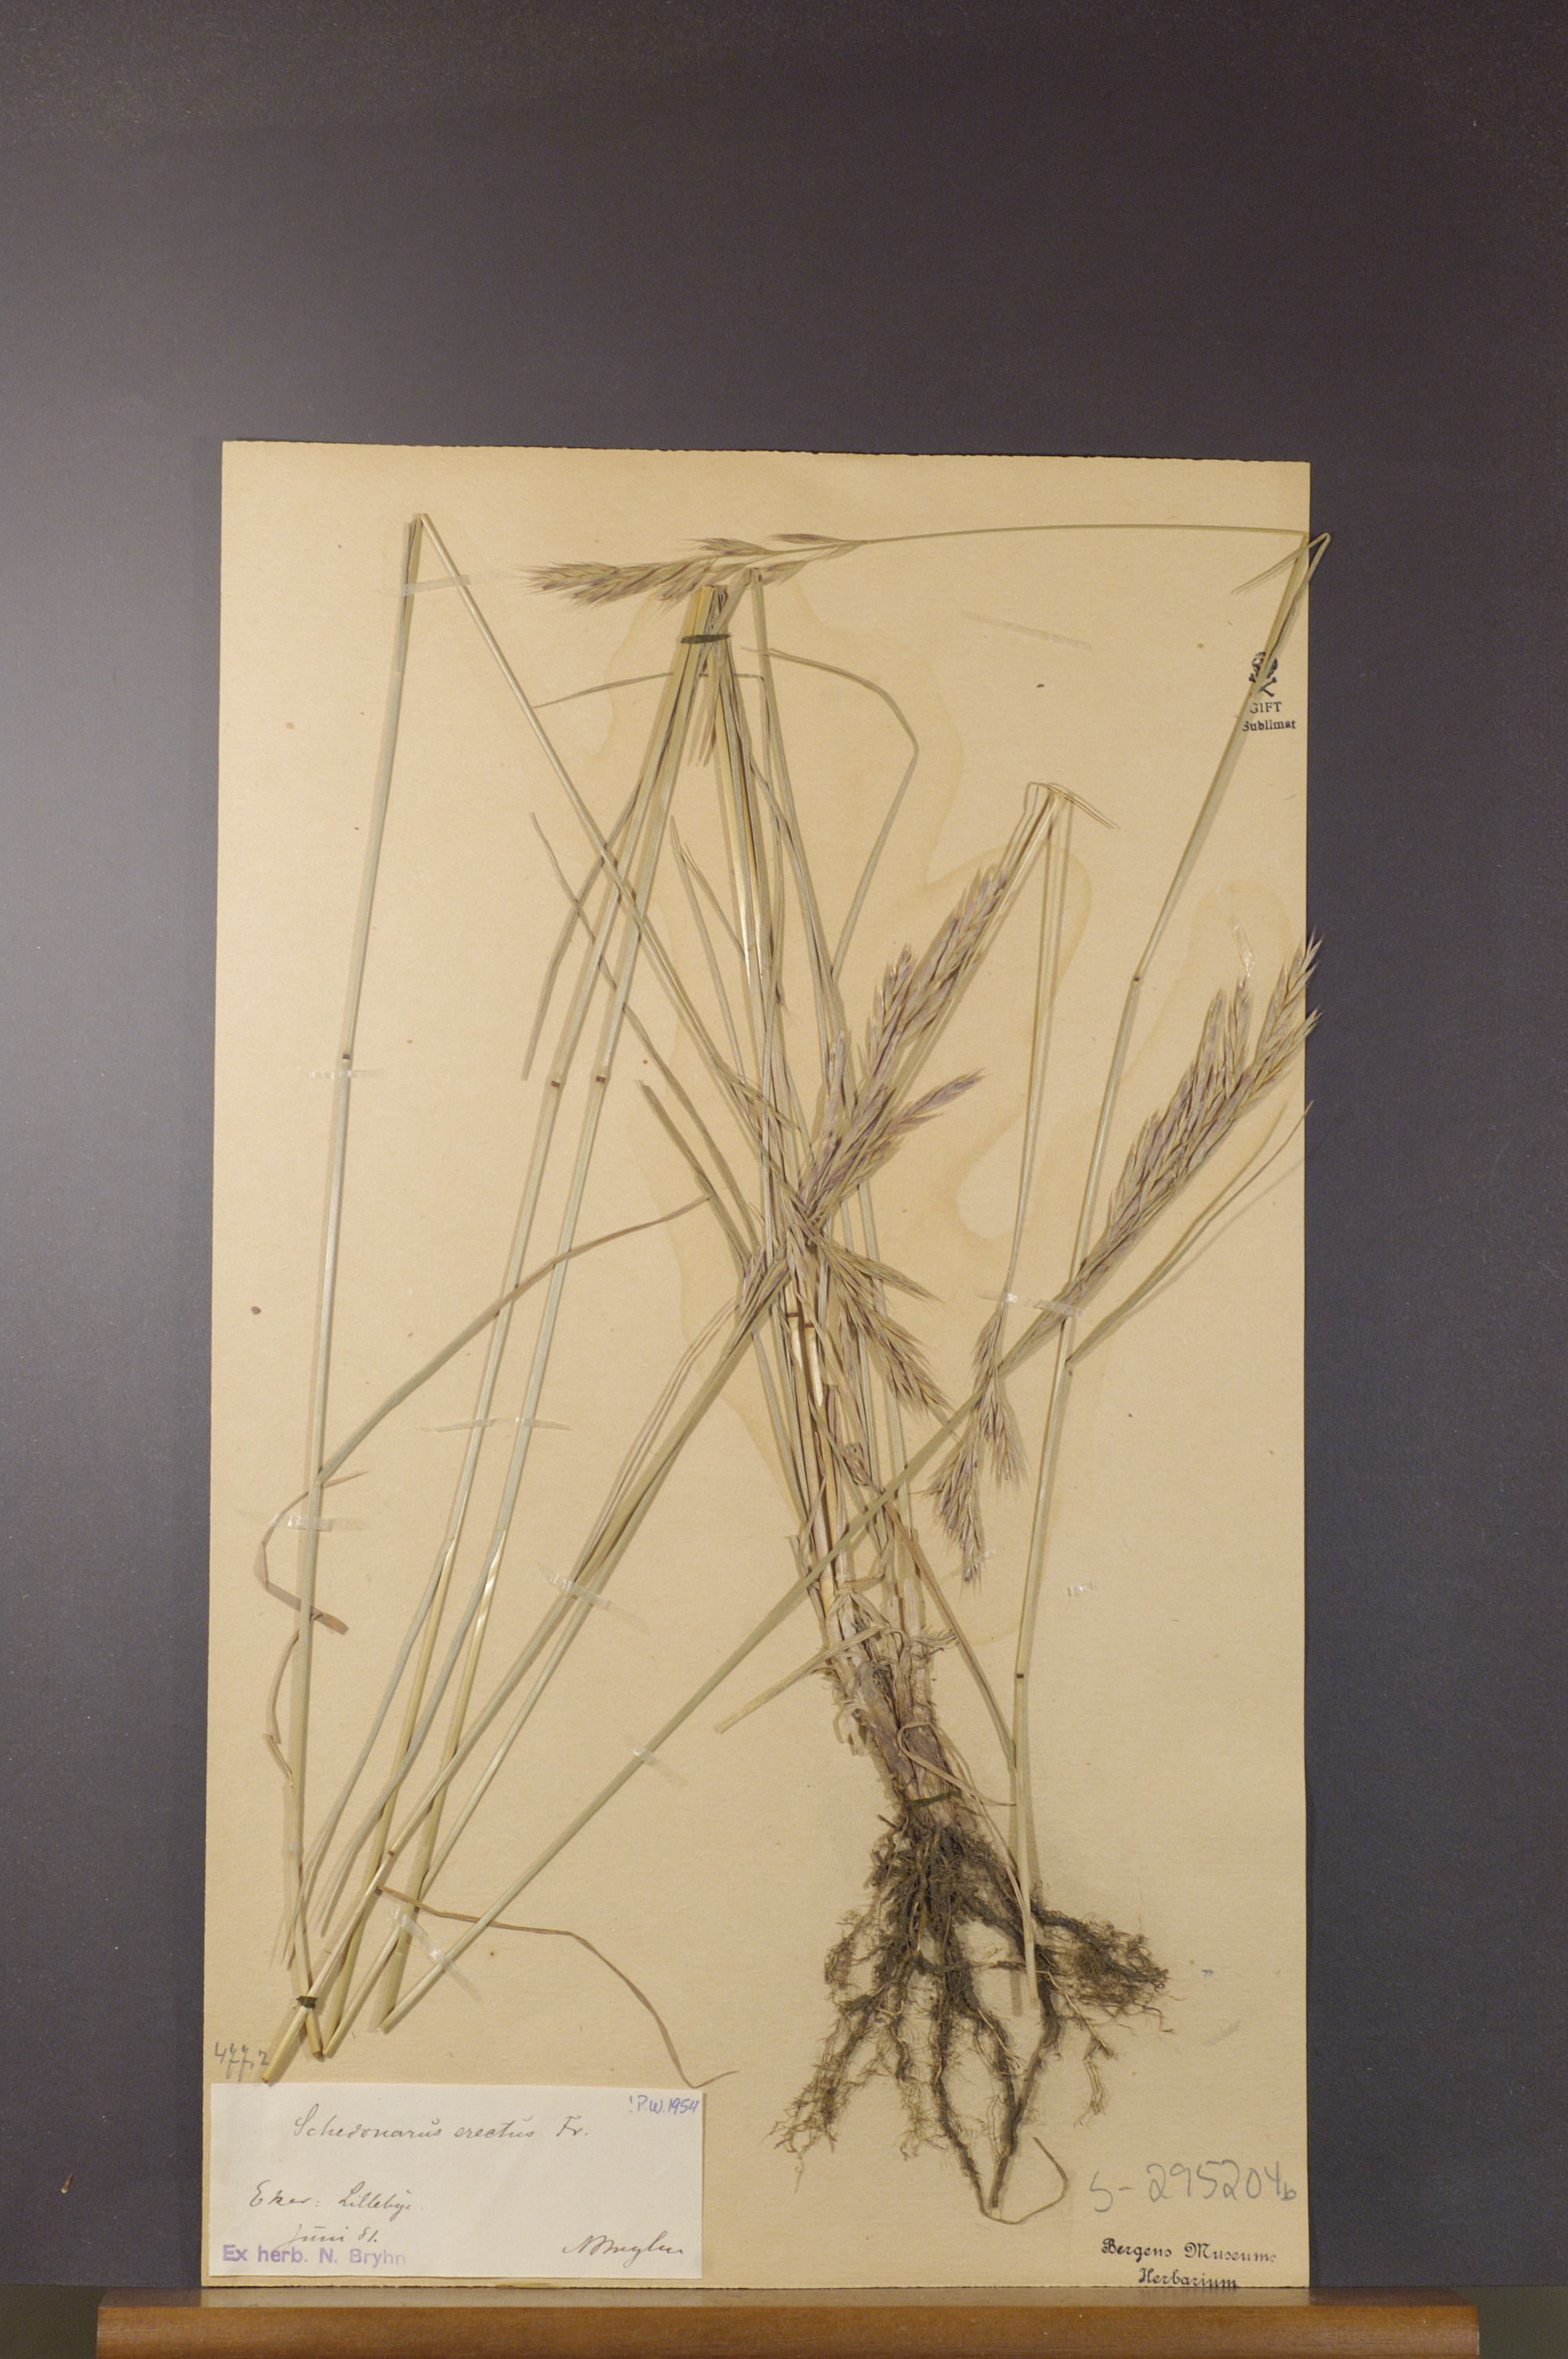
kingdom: Plantae
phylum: Tracheophyta
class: Liliopsida
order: Poales
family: Poaceae
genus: Bromus
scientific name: Bromus erectus
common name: Erect brome
